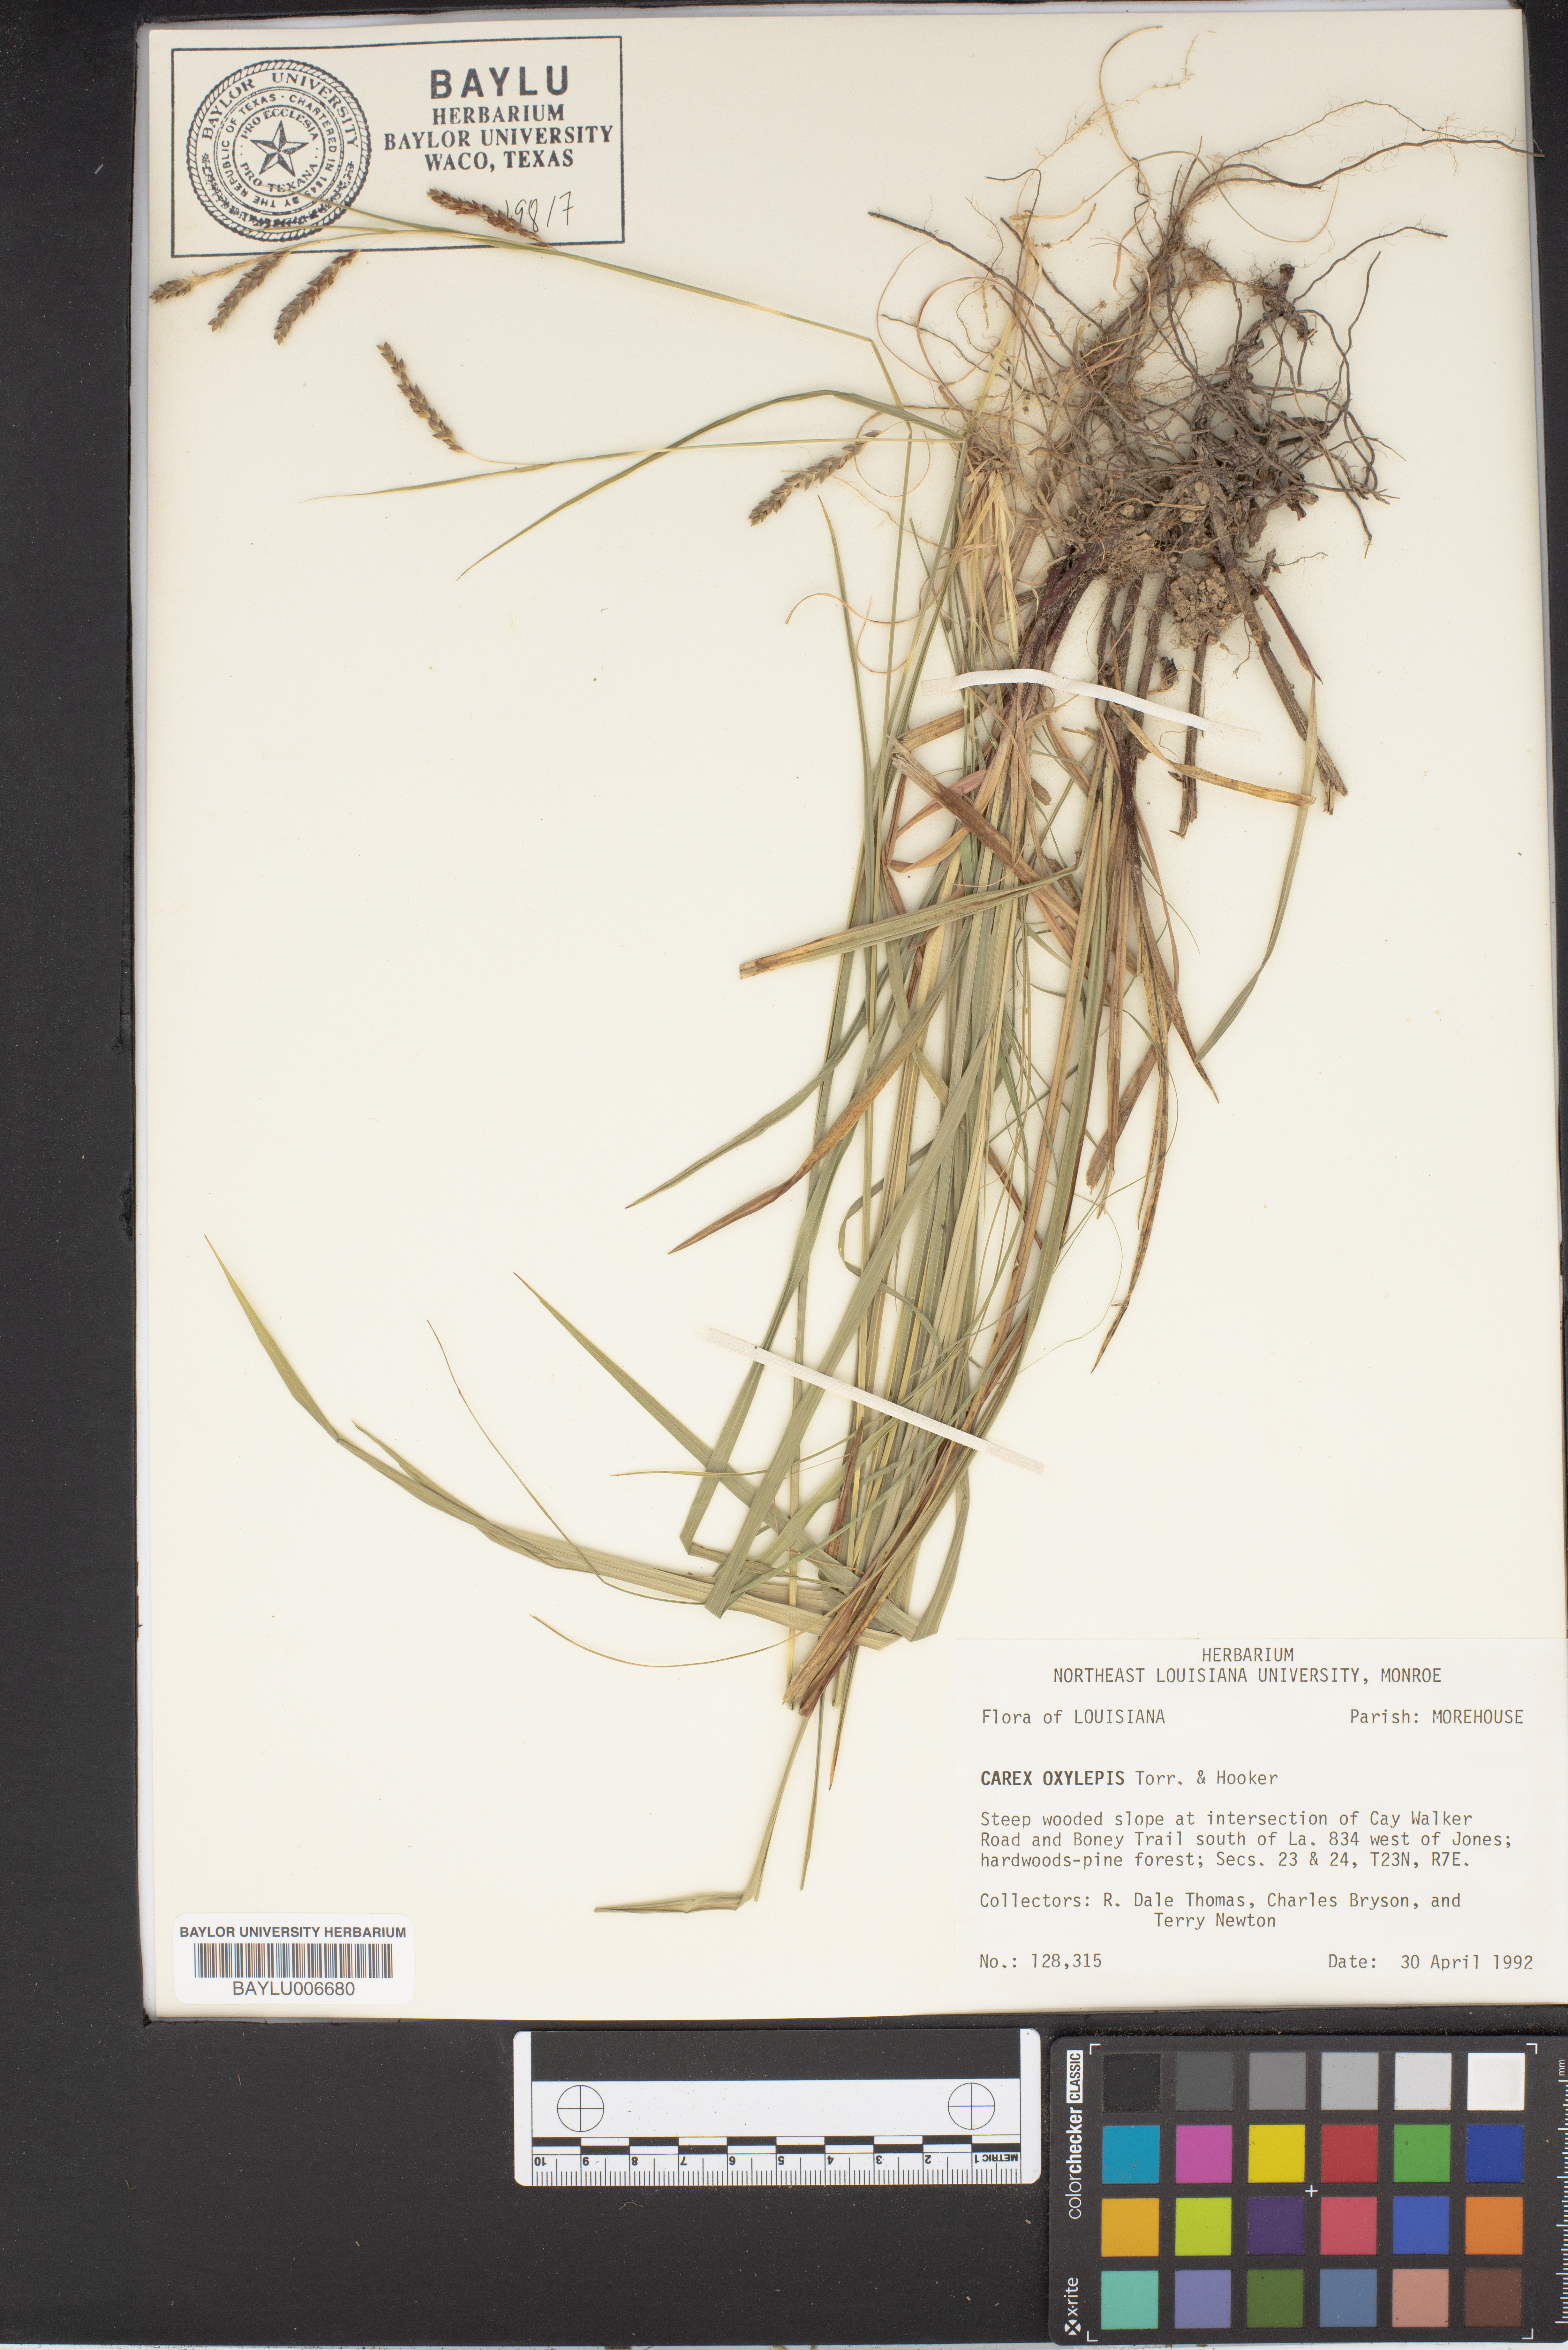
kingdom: Plantae
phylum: Tracheophyta
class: Liliopsida
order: Poales
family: Cyperaceae
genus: Carex
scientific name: Carex oxylepis
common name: Sharpscale sedge
